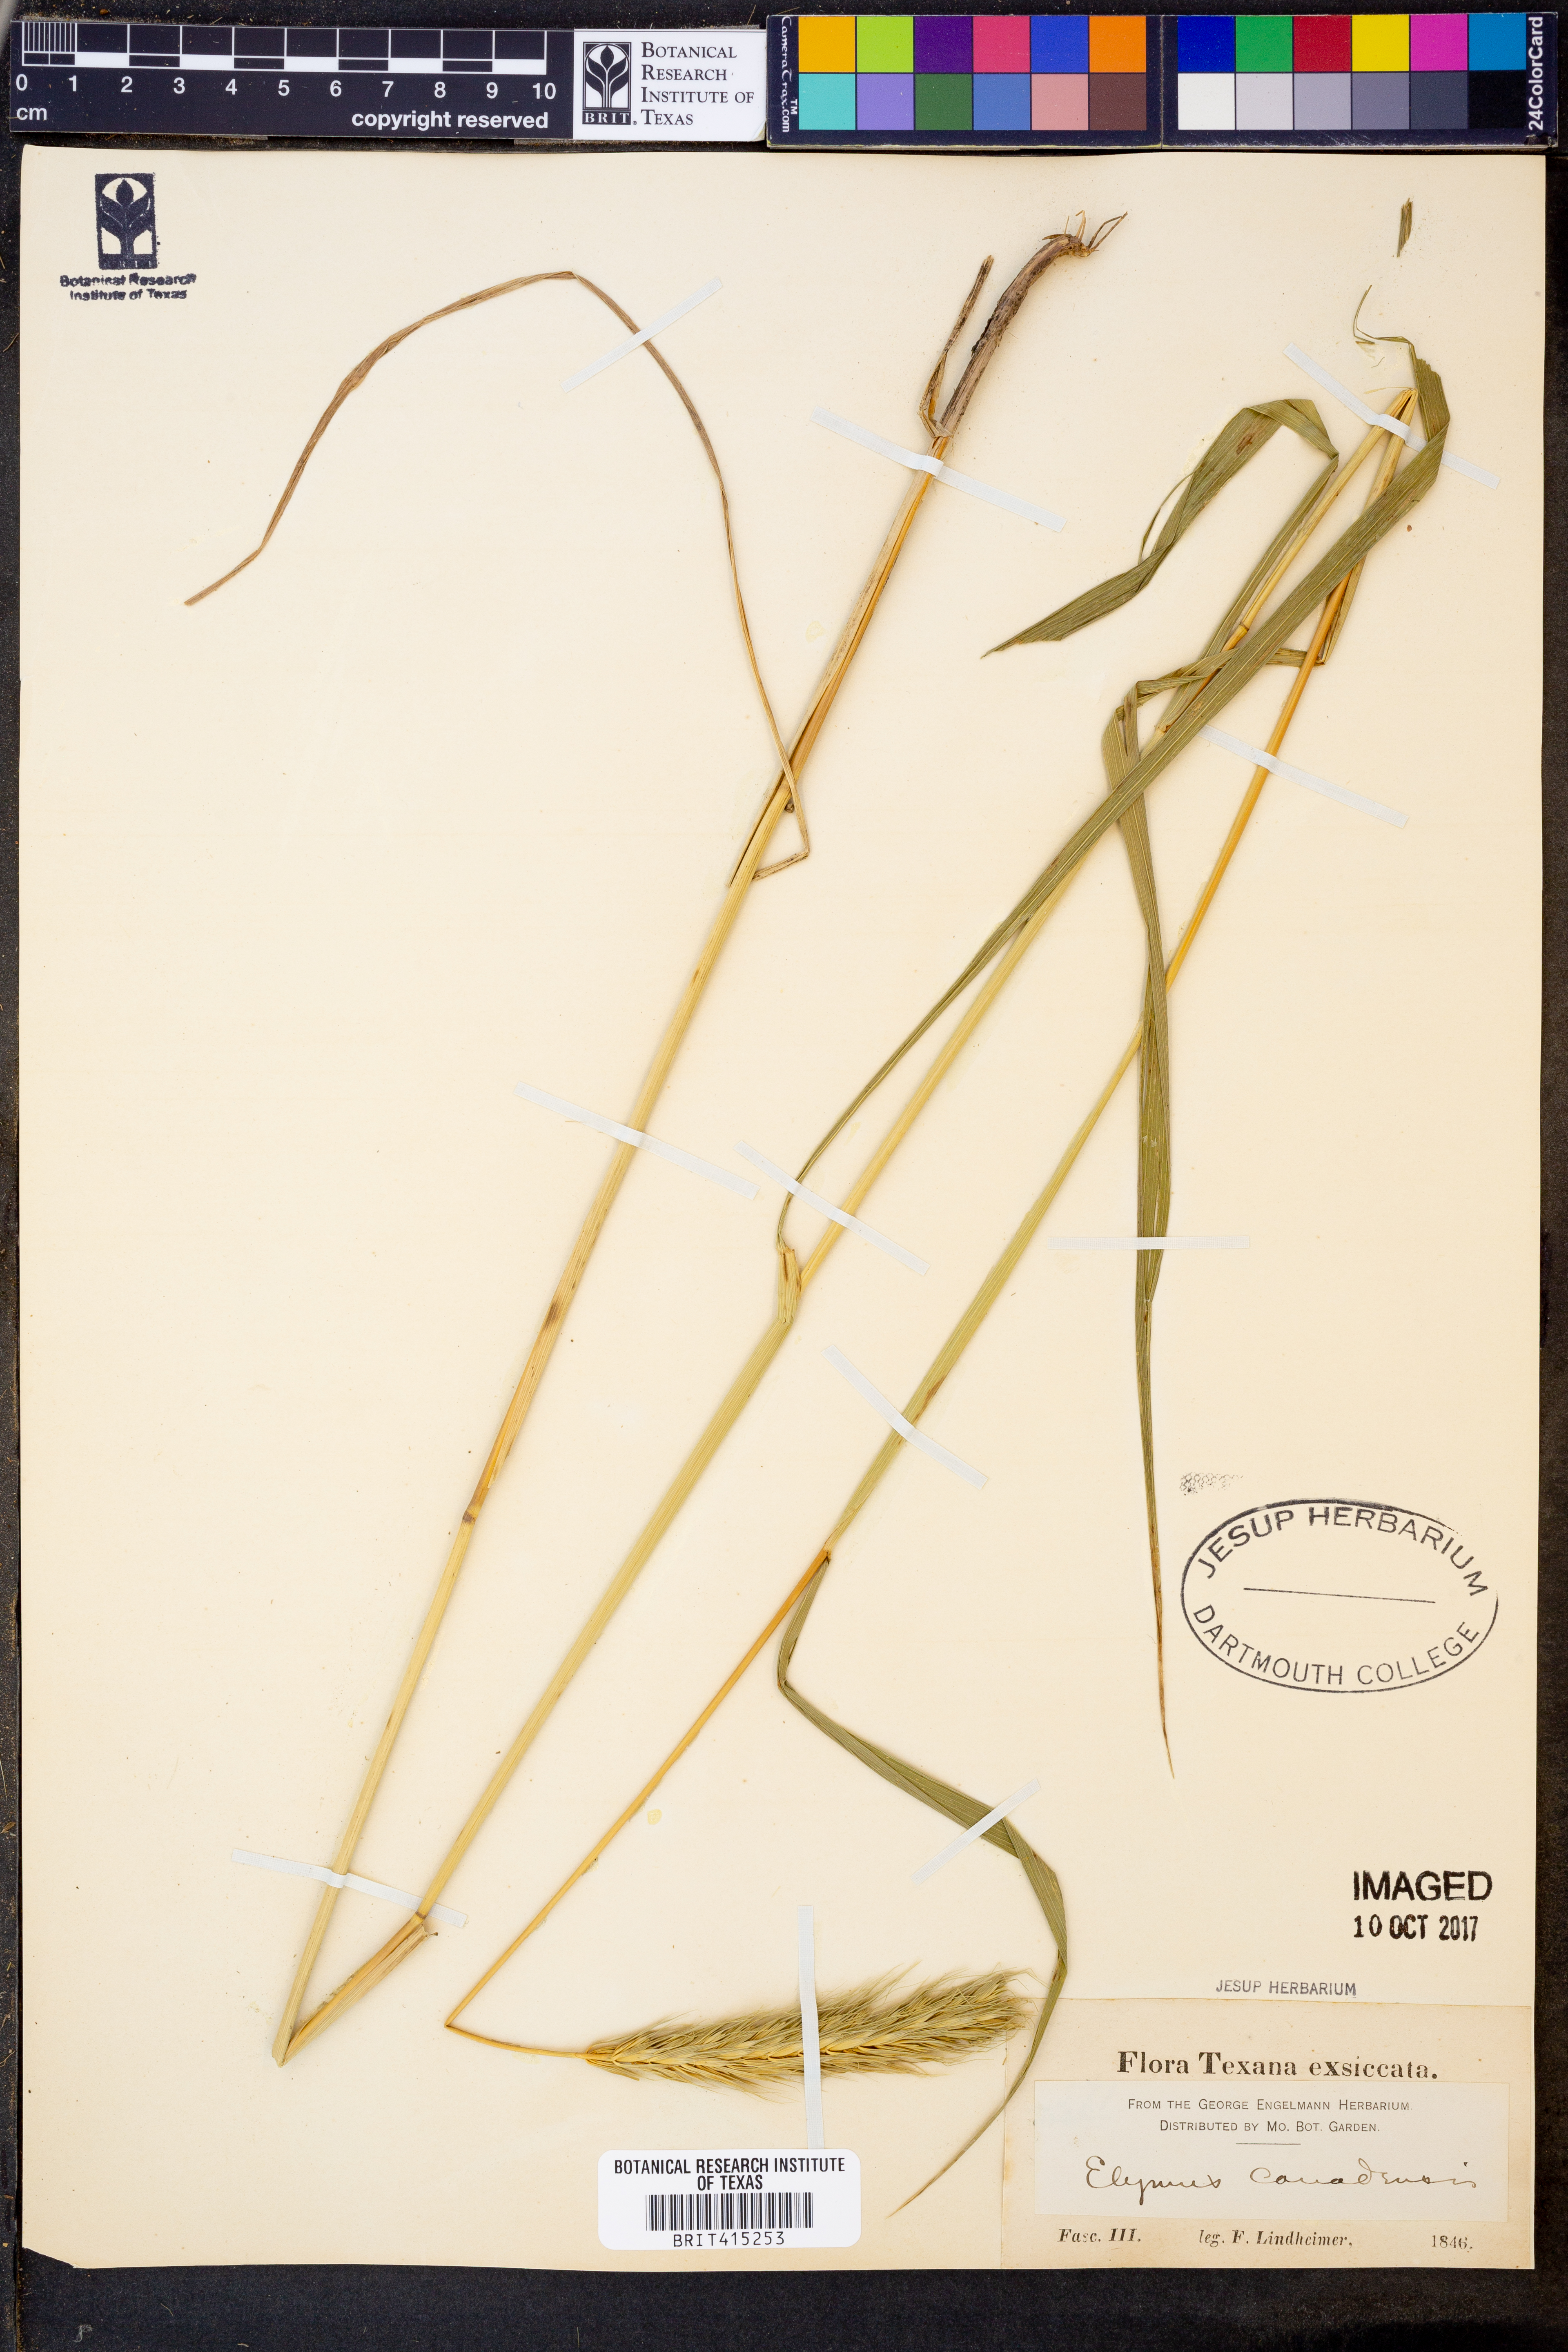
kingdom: Plantae
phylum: Tracheophyta
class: Liliopsida
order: Poales
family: Poaceae
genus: Elymus
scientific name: Elymus canadensis
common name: Canada wild rye
